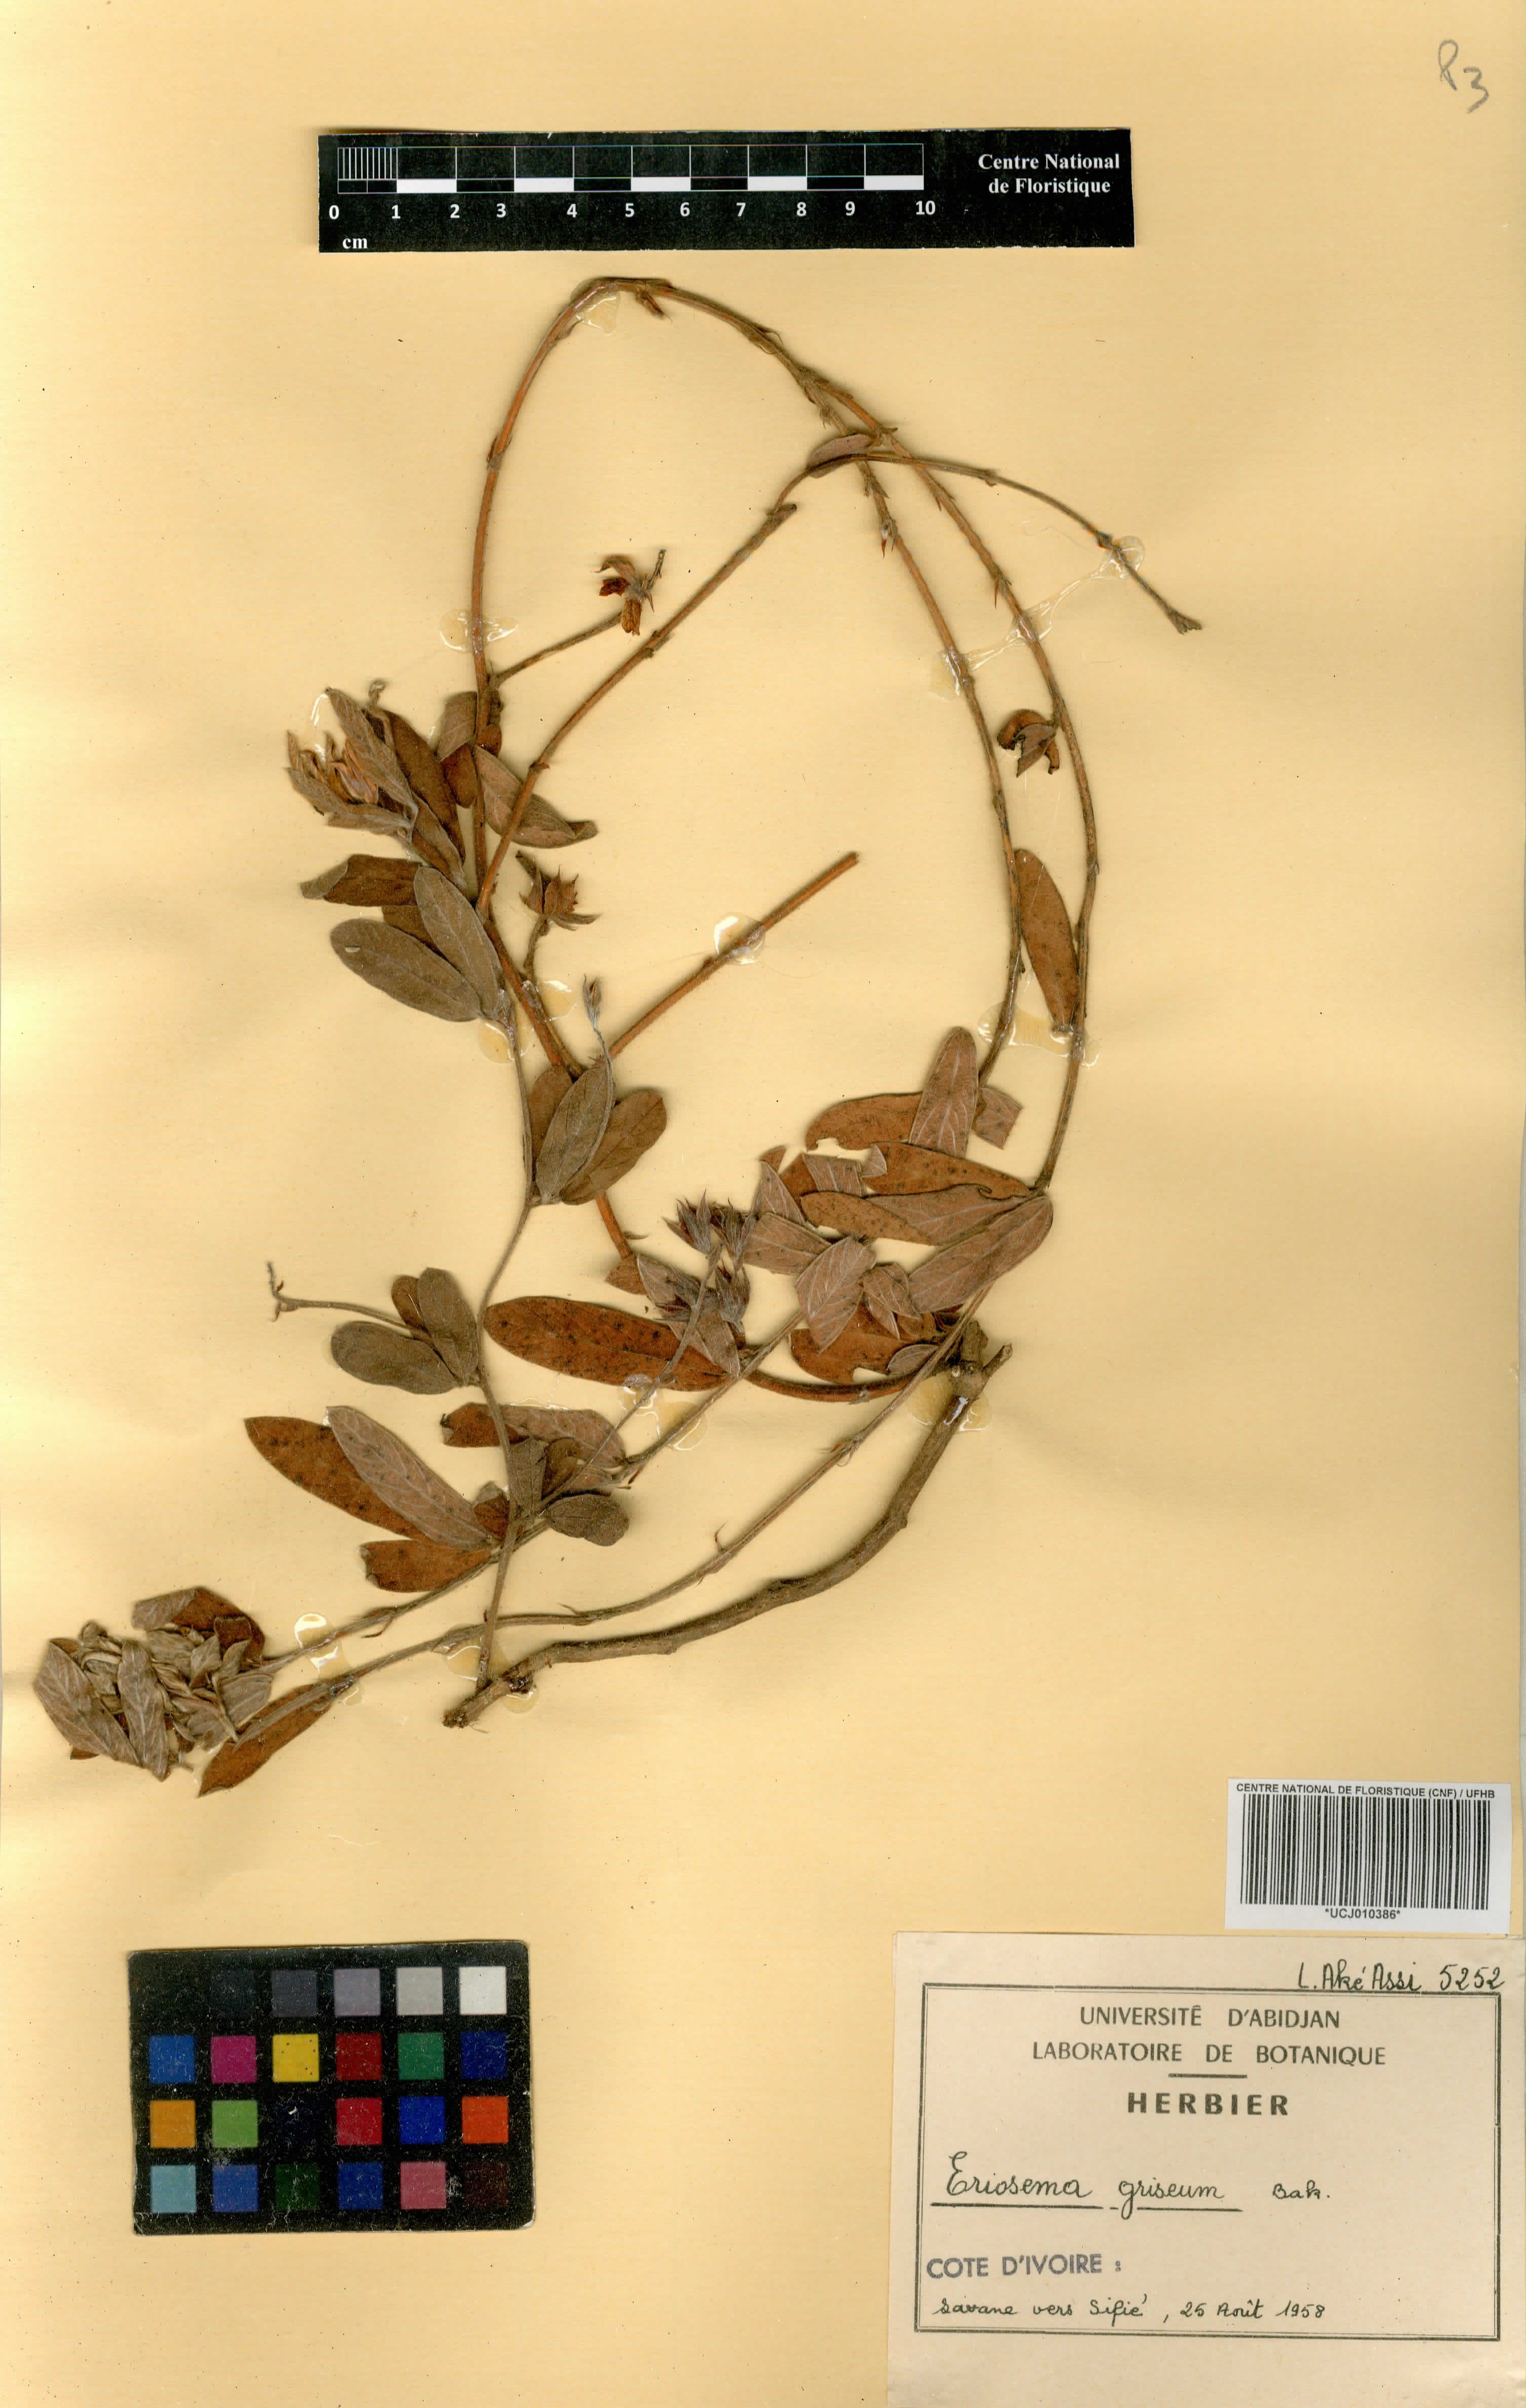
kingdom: Plantae
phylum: Tracheophyta
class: Magnoliopsida
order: Fabales
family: Fabaceae
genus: Eriosema
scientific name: Eriosema griseum
